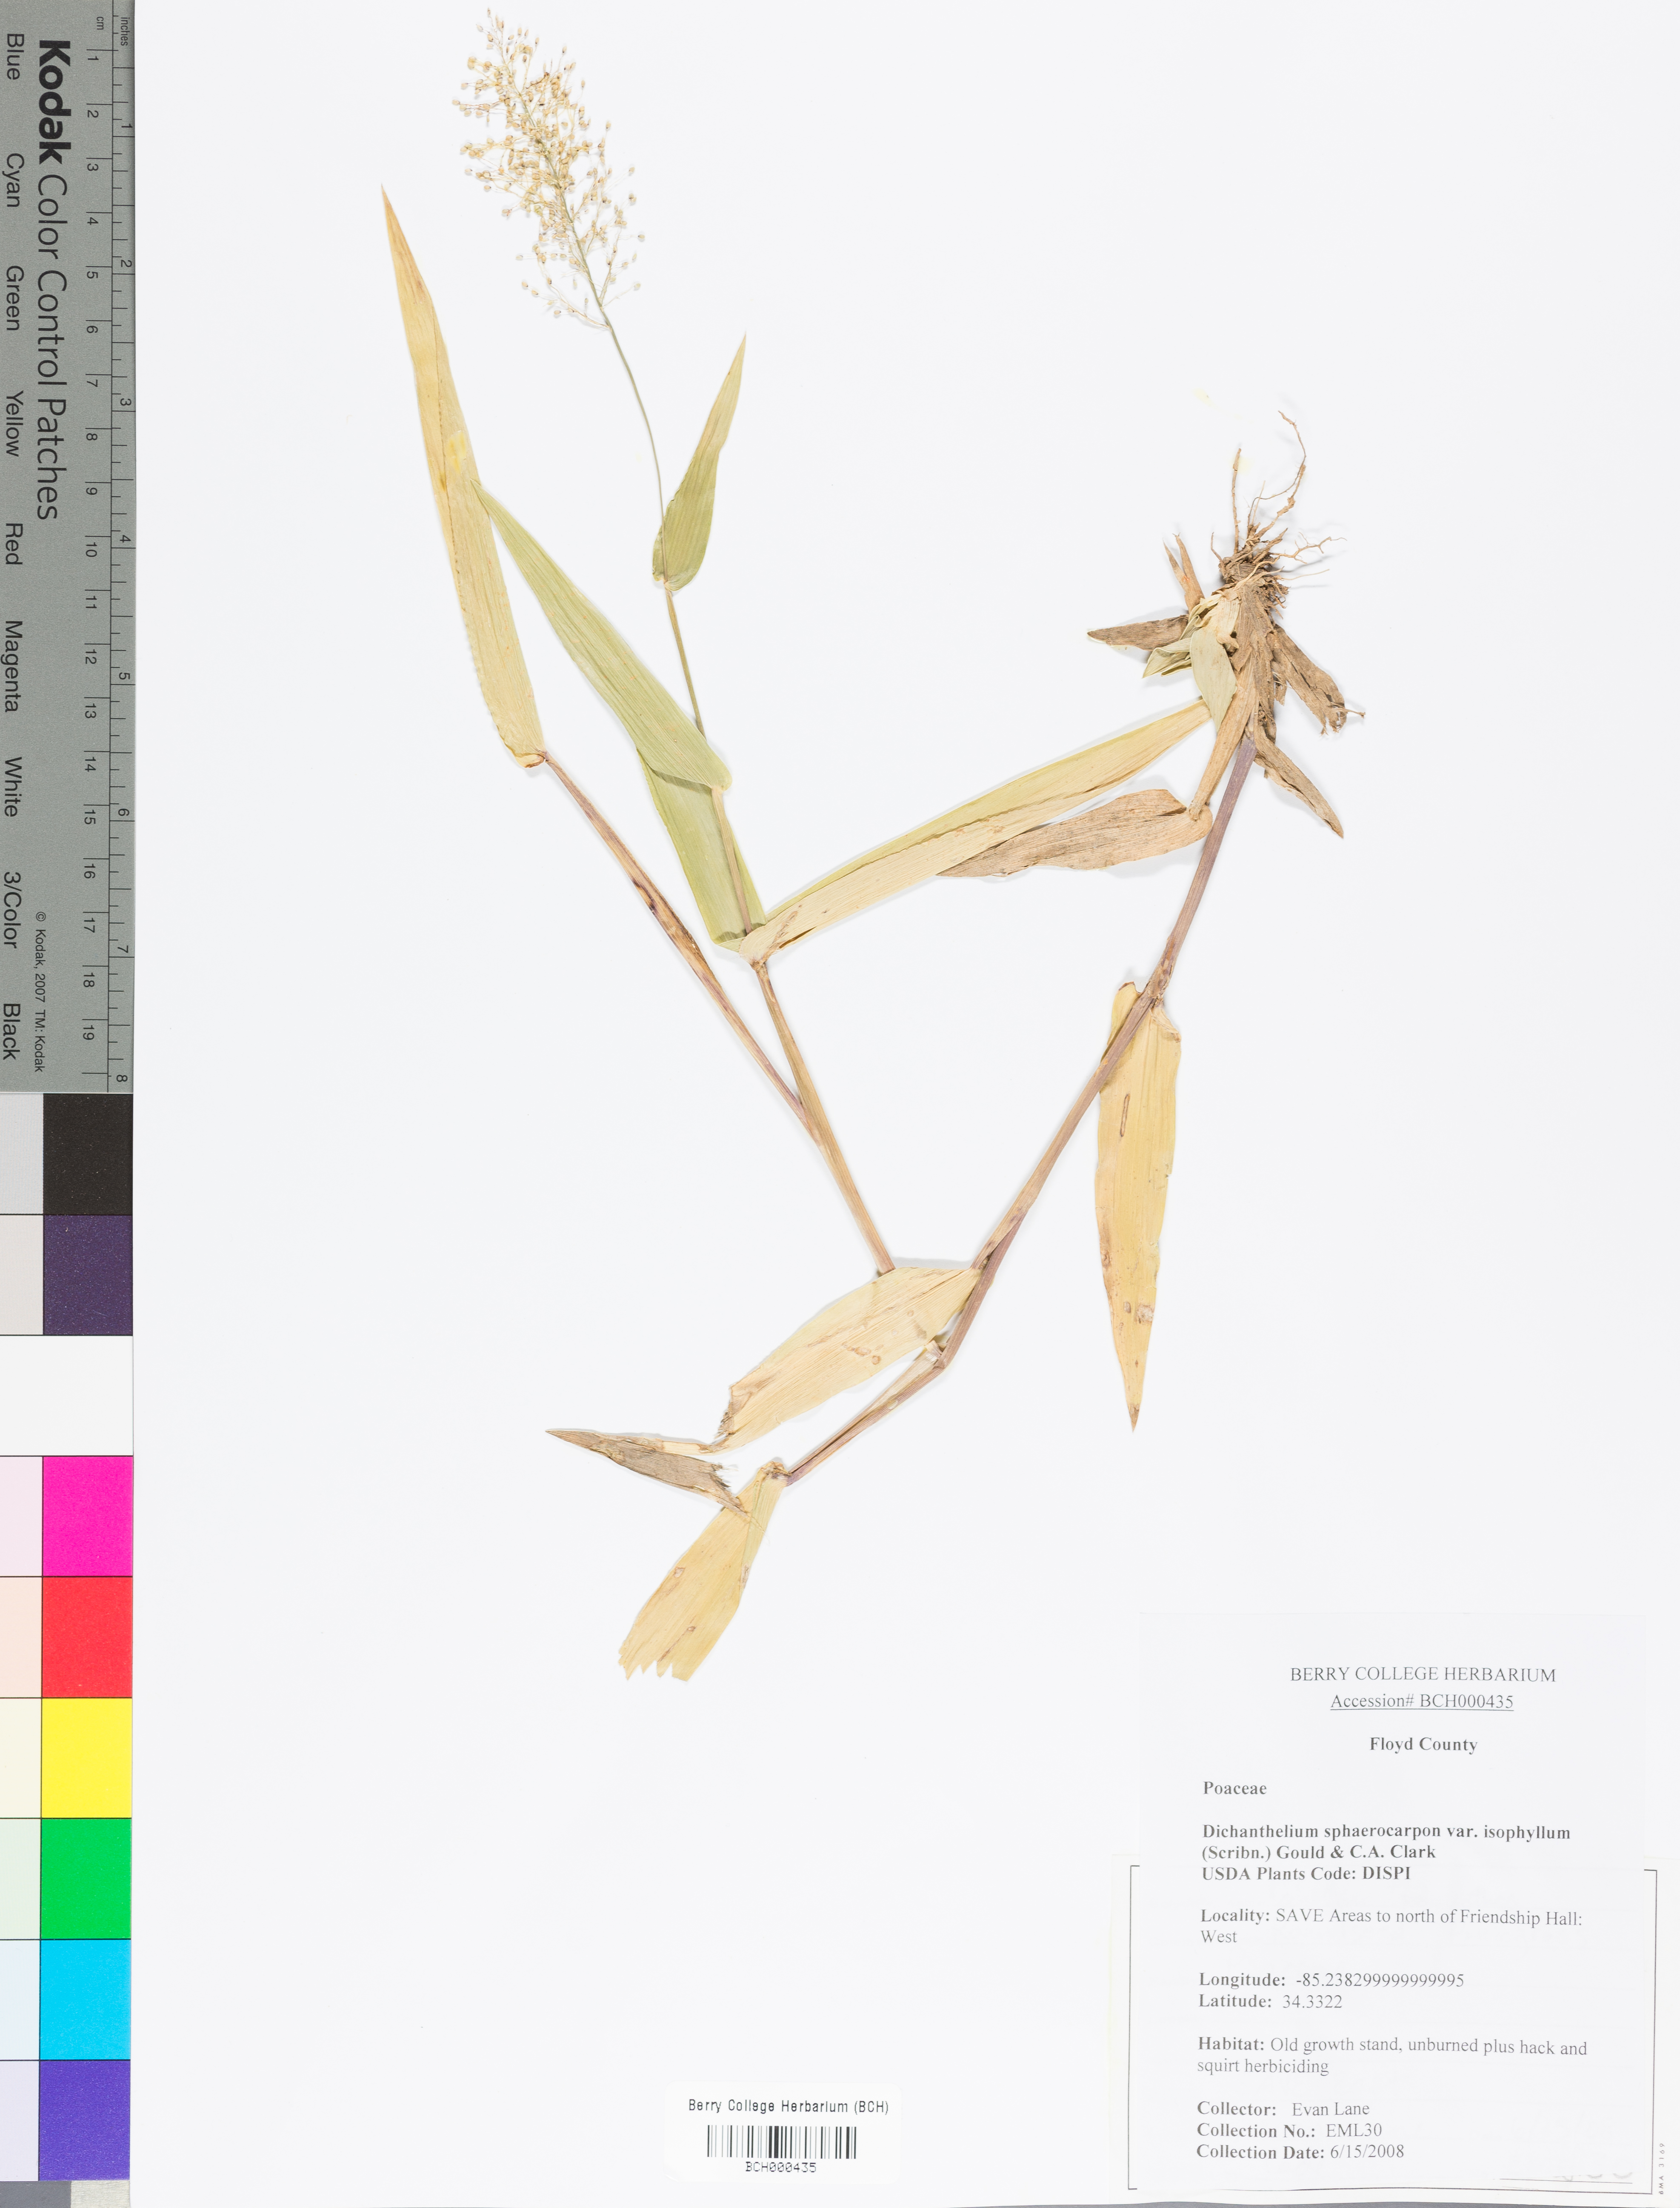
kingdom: Plantae
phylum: Tracheophyta
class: Liliopsida
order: Poales
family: Poaceae
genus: Dichanthelium
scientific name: Dichanthelium polyanthes
